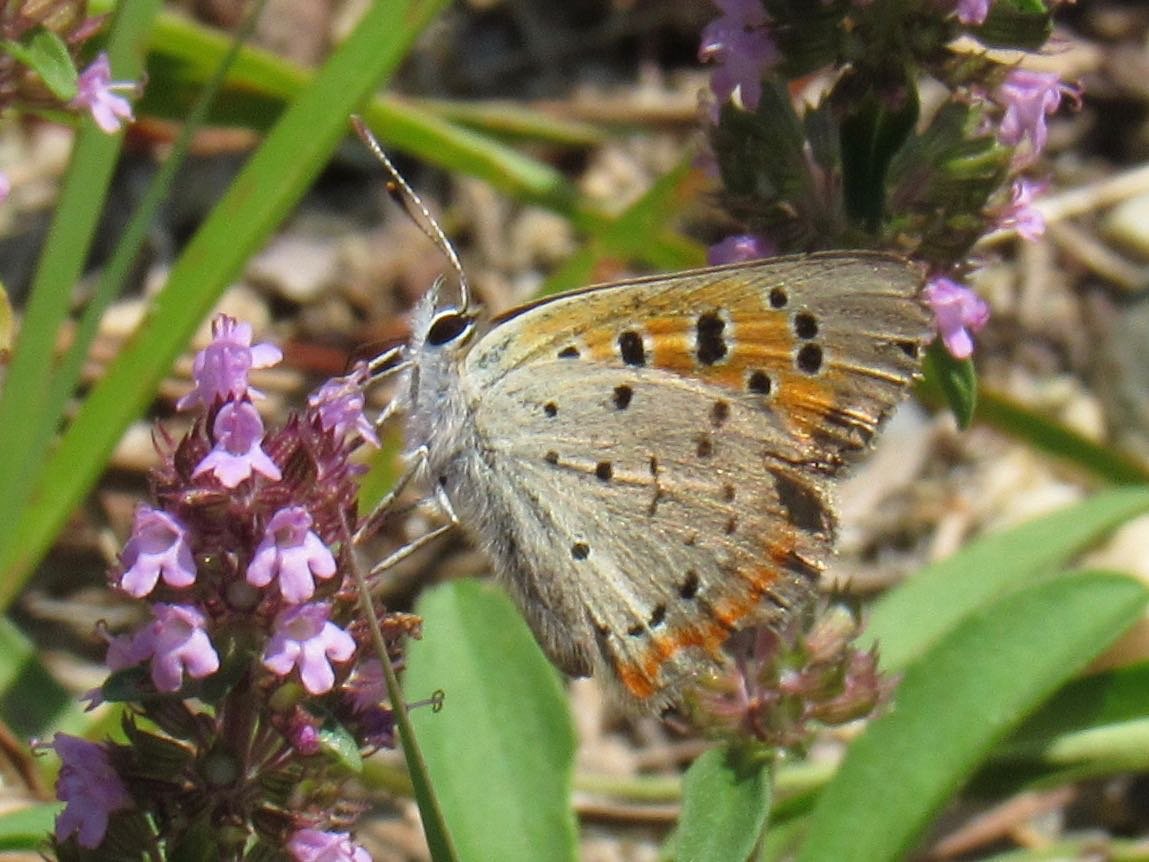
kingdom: Animalia
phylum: Arthropoda
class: Insecta
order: Lepidoptera
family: Lycaenidae
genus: Lycaena
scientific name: Lycaena phlaeas
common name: American Copper
